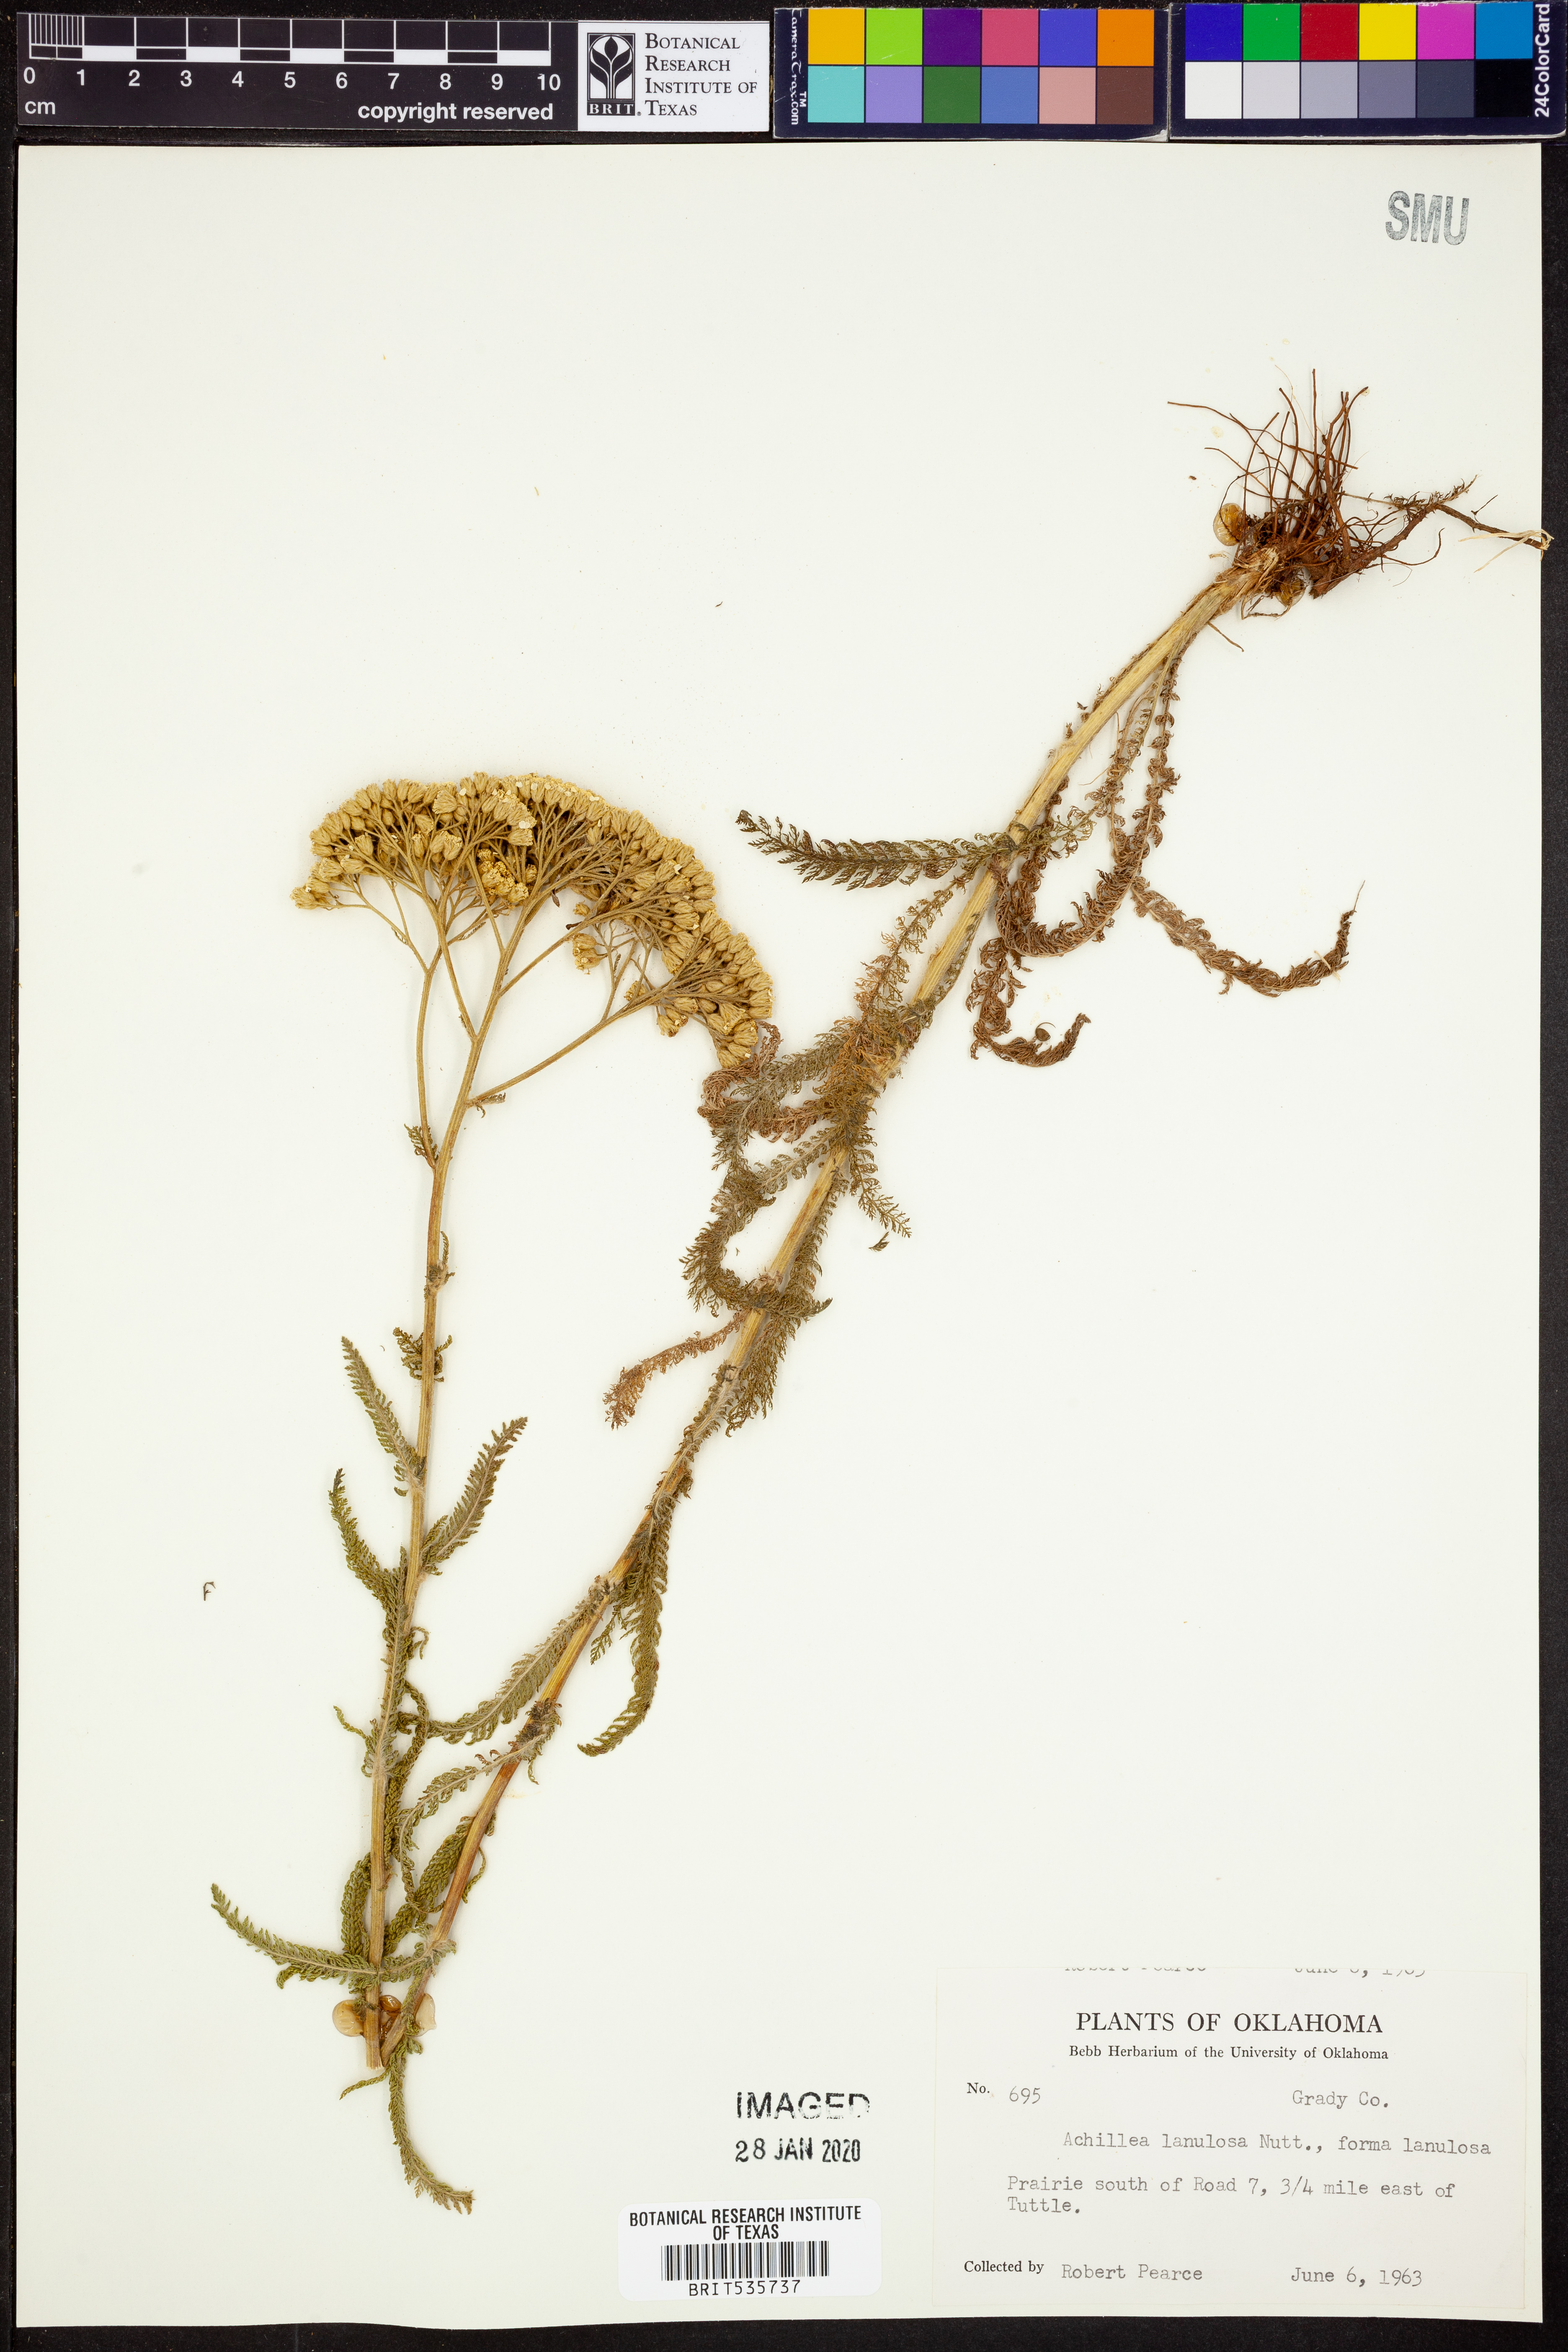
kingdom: Plantae
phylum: Tracheophyta
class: Magnoliopsida
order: Asterales
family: Asteraceae
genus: Achillea
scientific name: Achillea millefolium
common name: Yarrow
